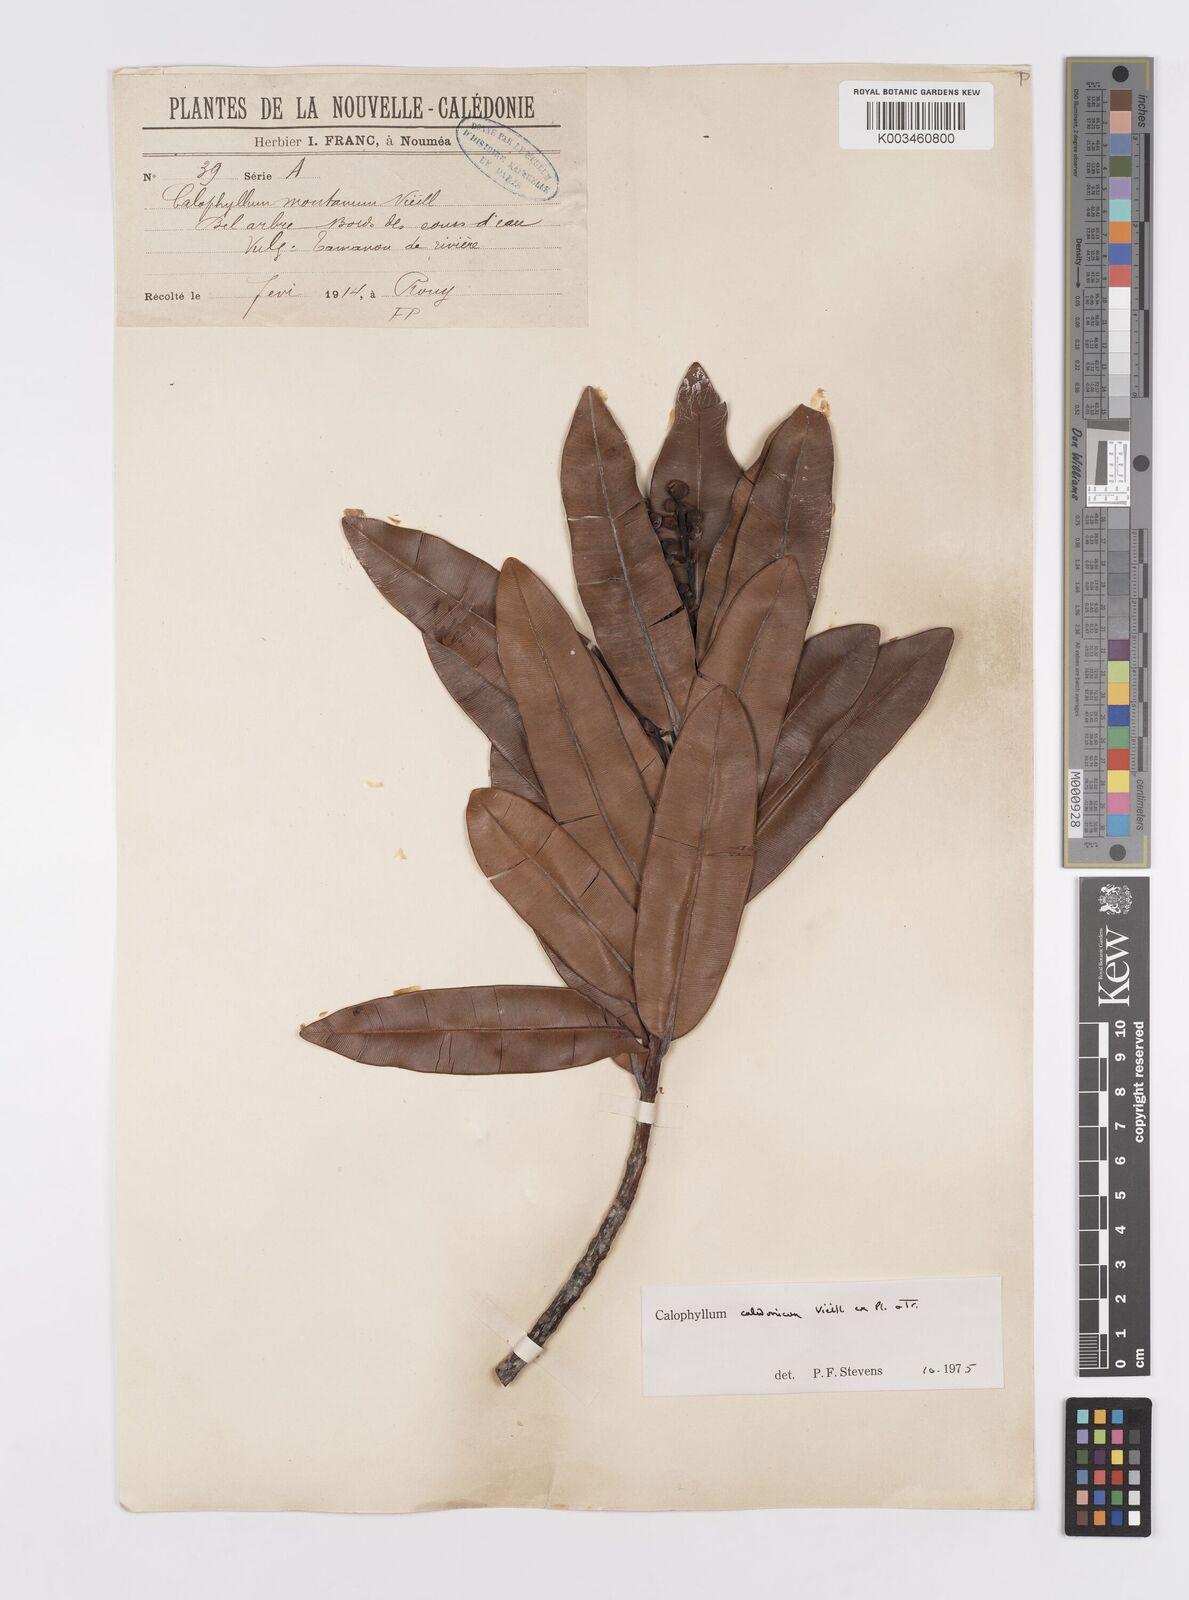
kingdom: Plantae
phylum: Tracheophyta
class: Magnoliopsida
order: Malpighiales
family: Calophyllaceae
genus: Calophyllum
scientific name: Calophyllum caledonicum
